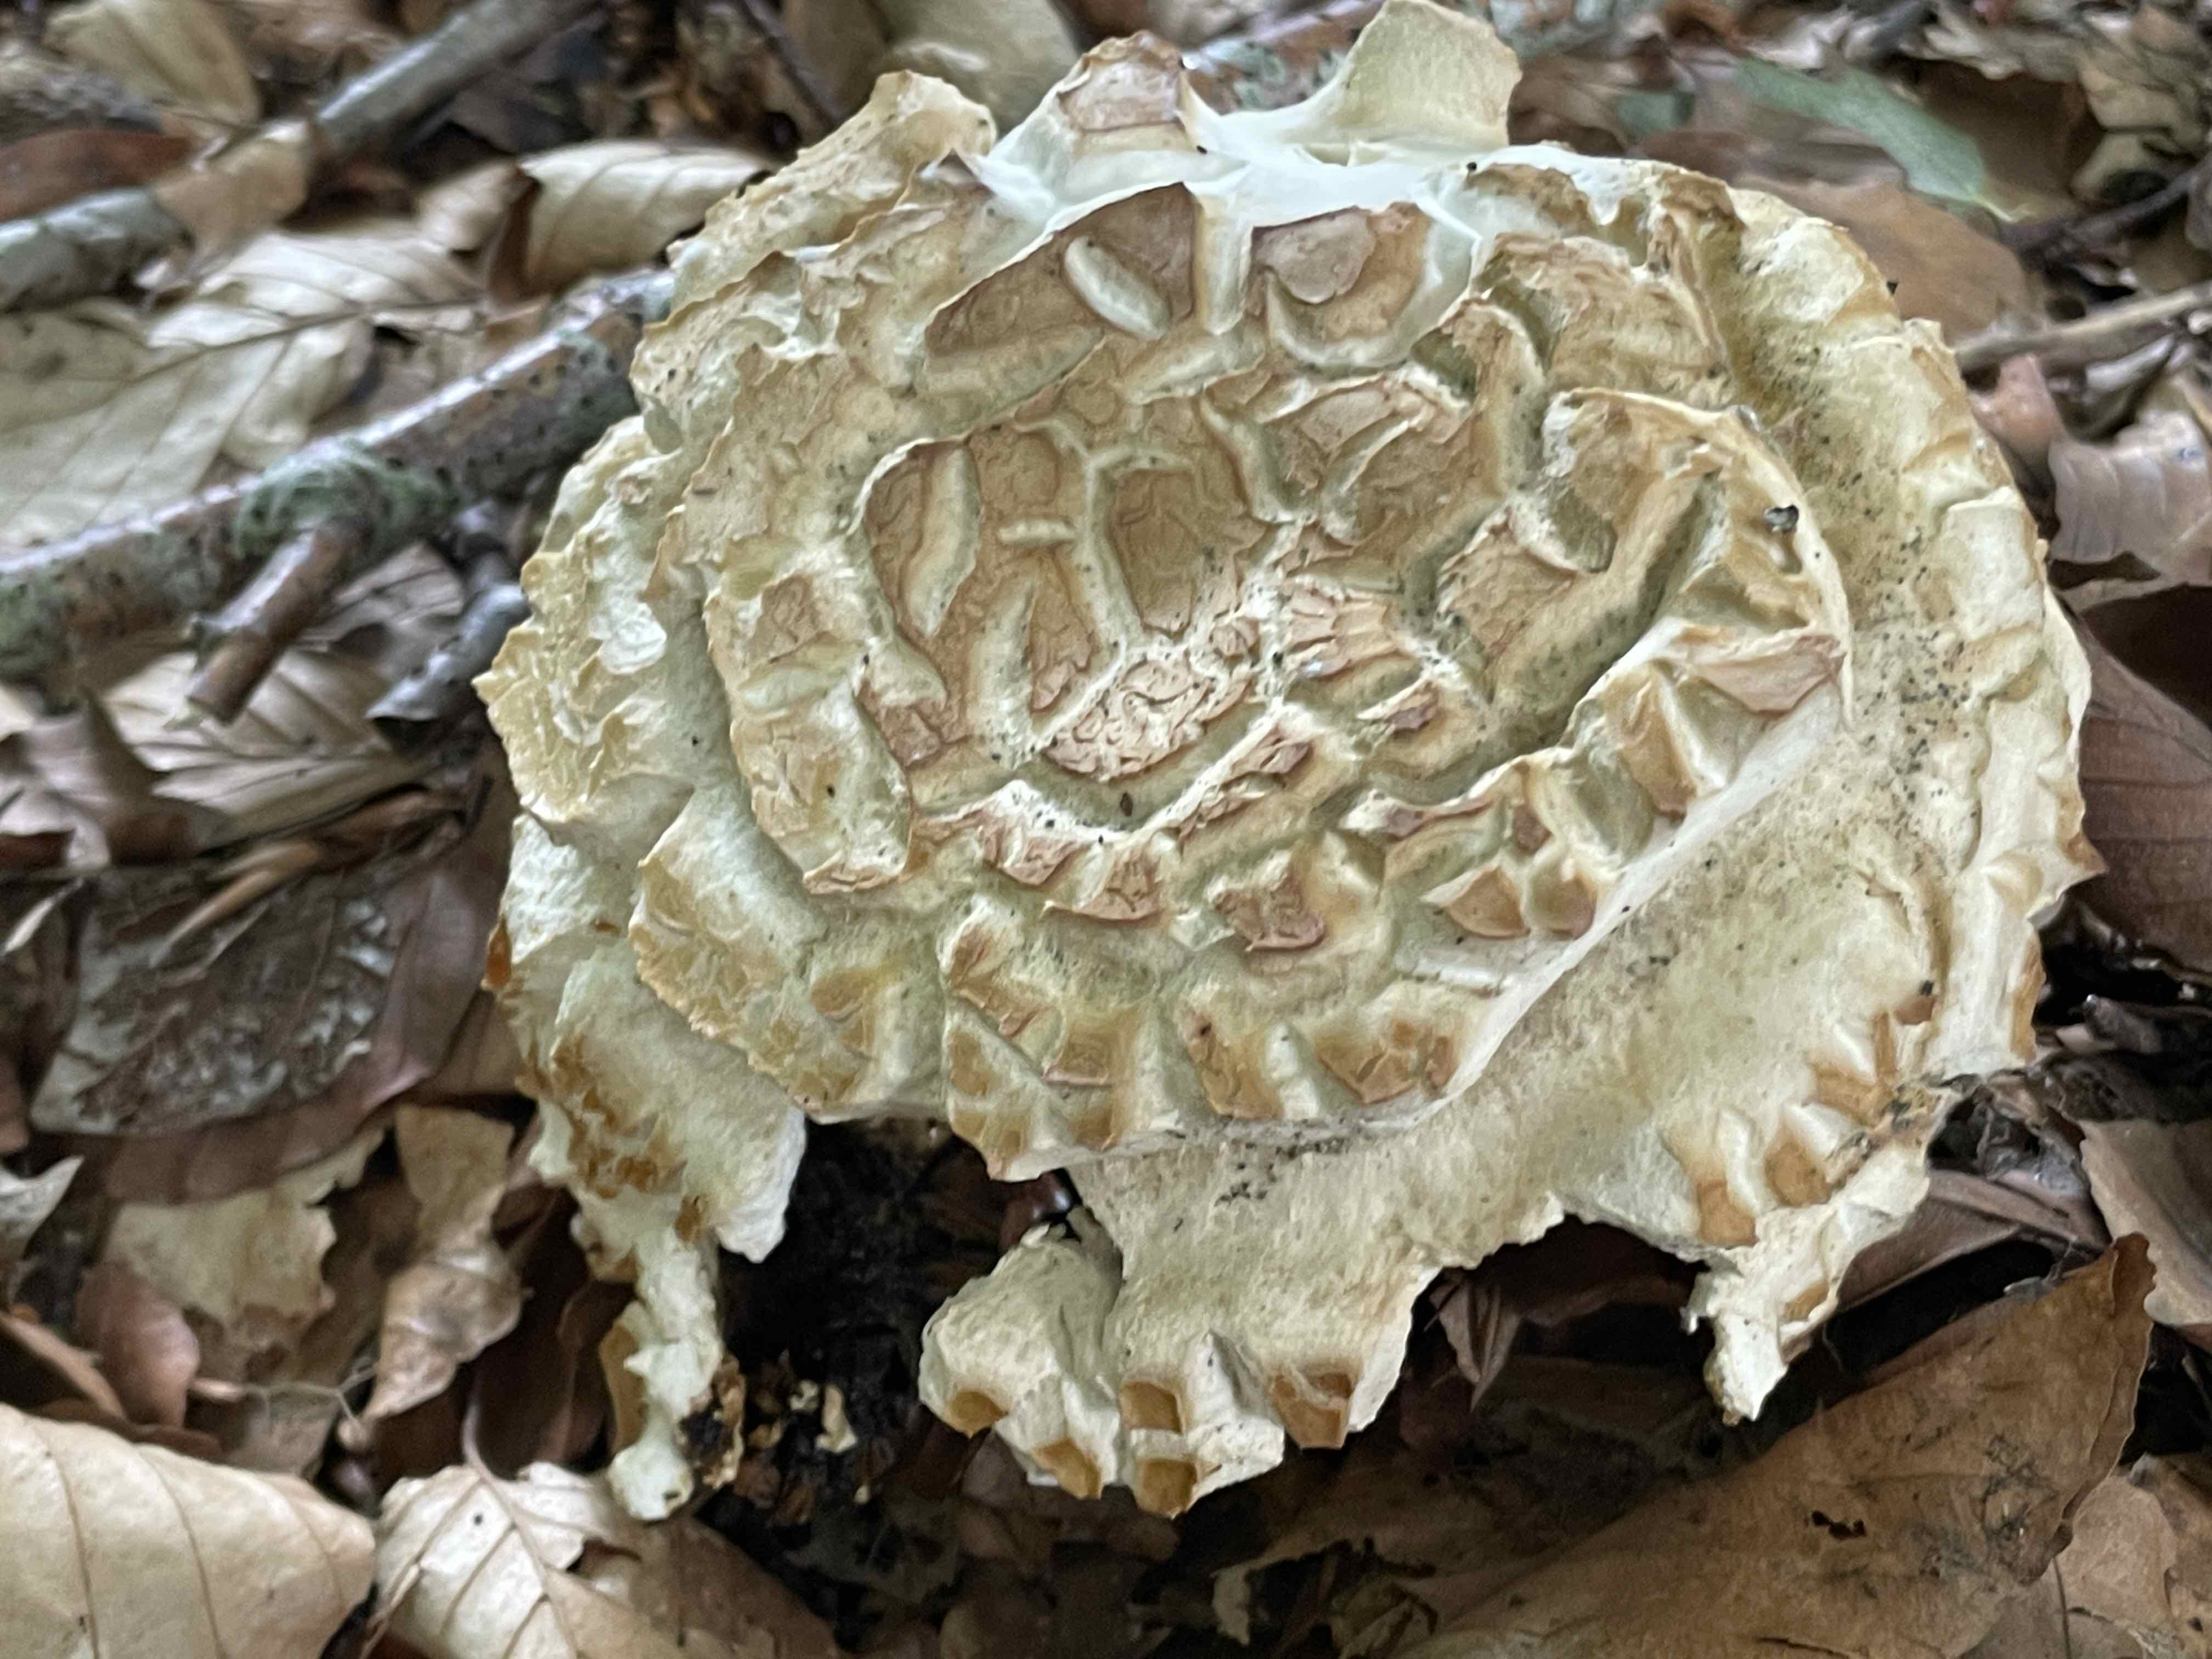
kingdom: Fungi
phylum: Basidiomycota
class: Agaricomycetes
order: Boletales
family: Boletaceae
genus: Caloboletus
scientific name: Caloboletus radicans
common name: rod-rørhat
